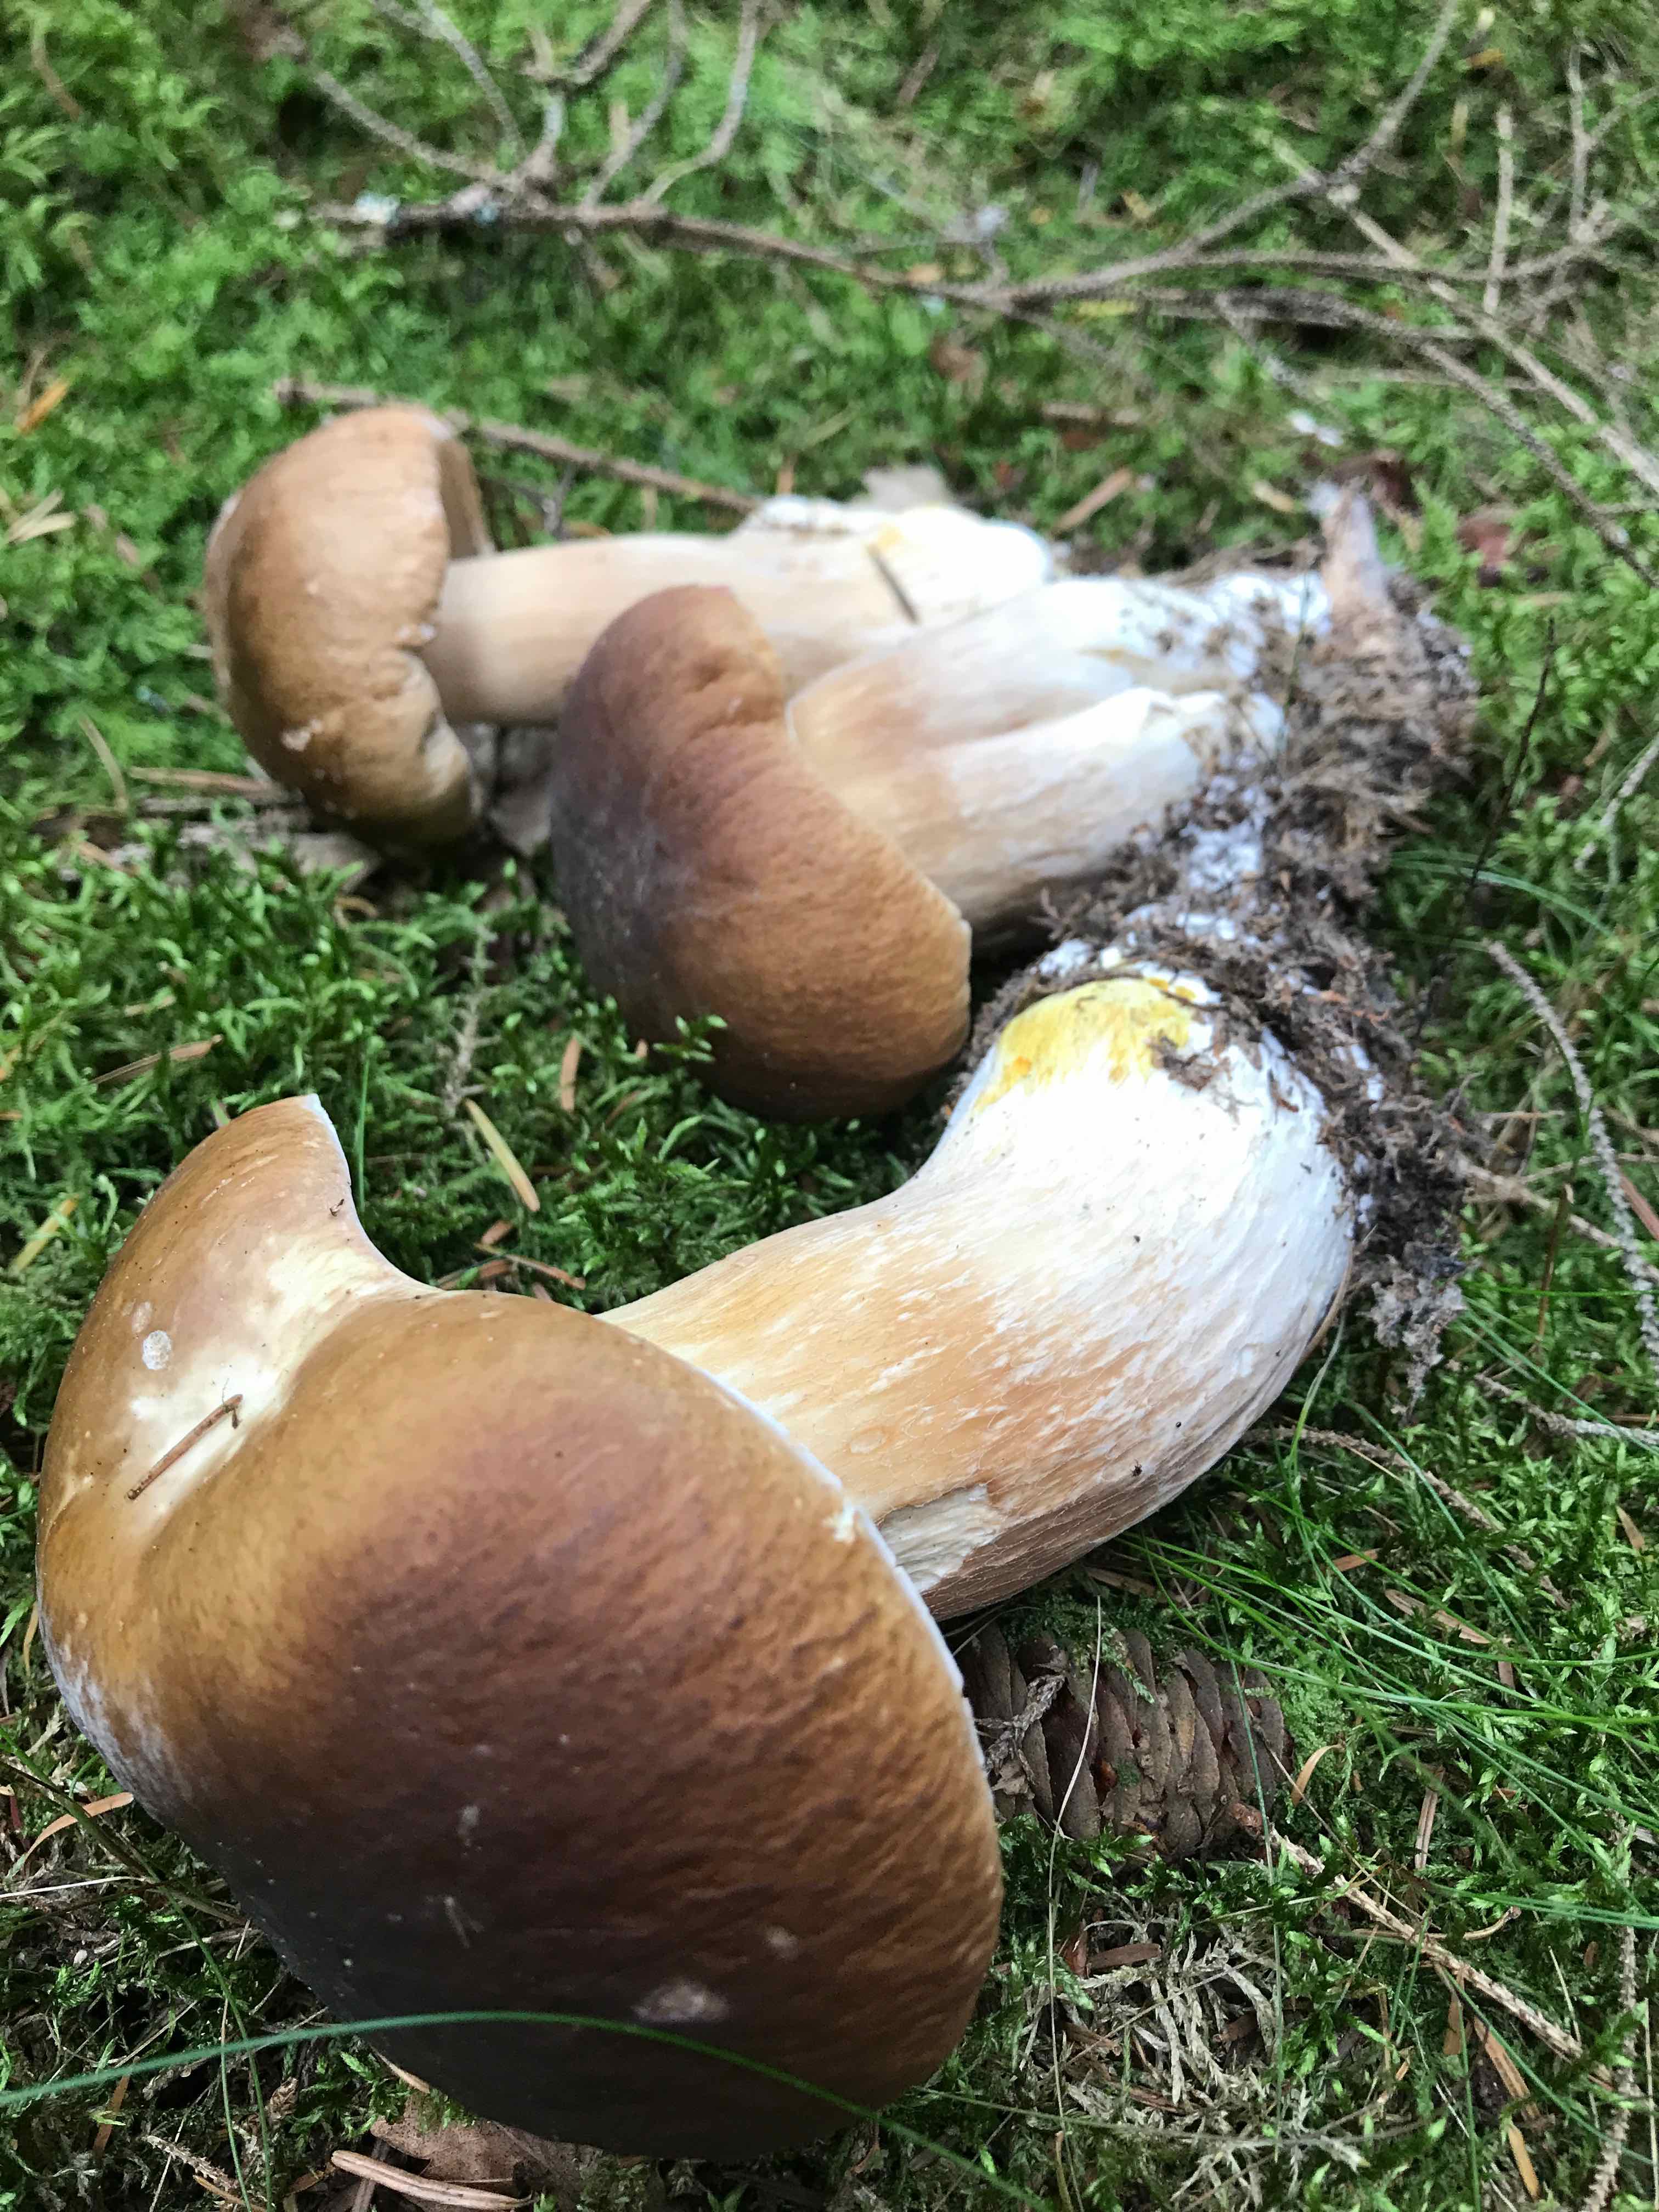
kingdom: Fungi
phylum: Basidiomycota
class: Agaricomycetes
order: Boletales
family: Boletaceae
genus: Boletus
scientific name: Boletus edulis
